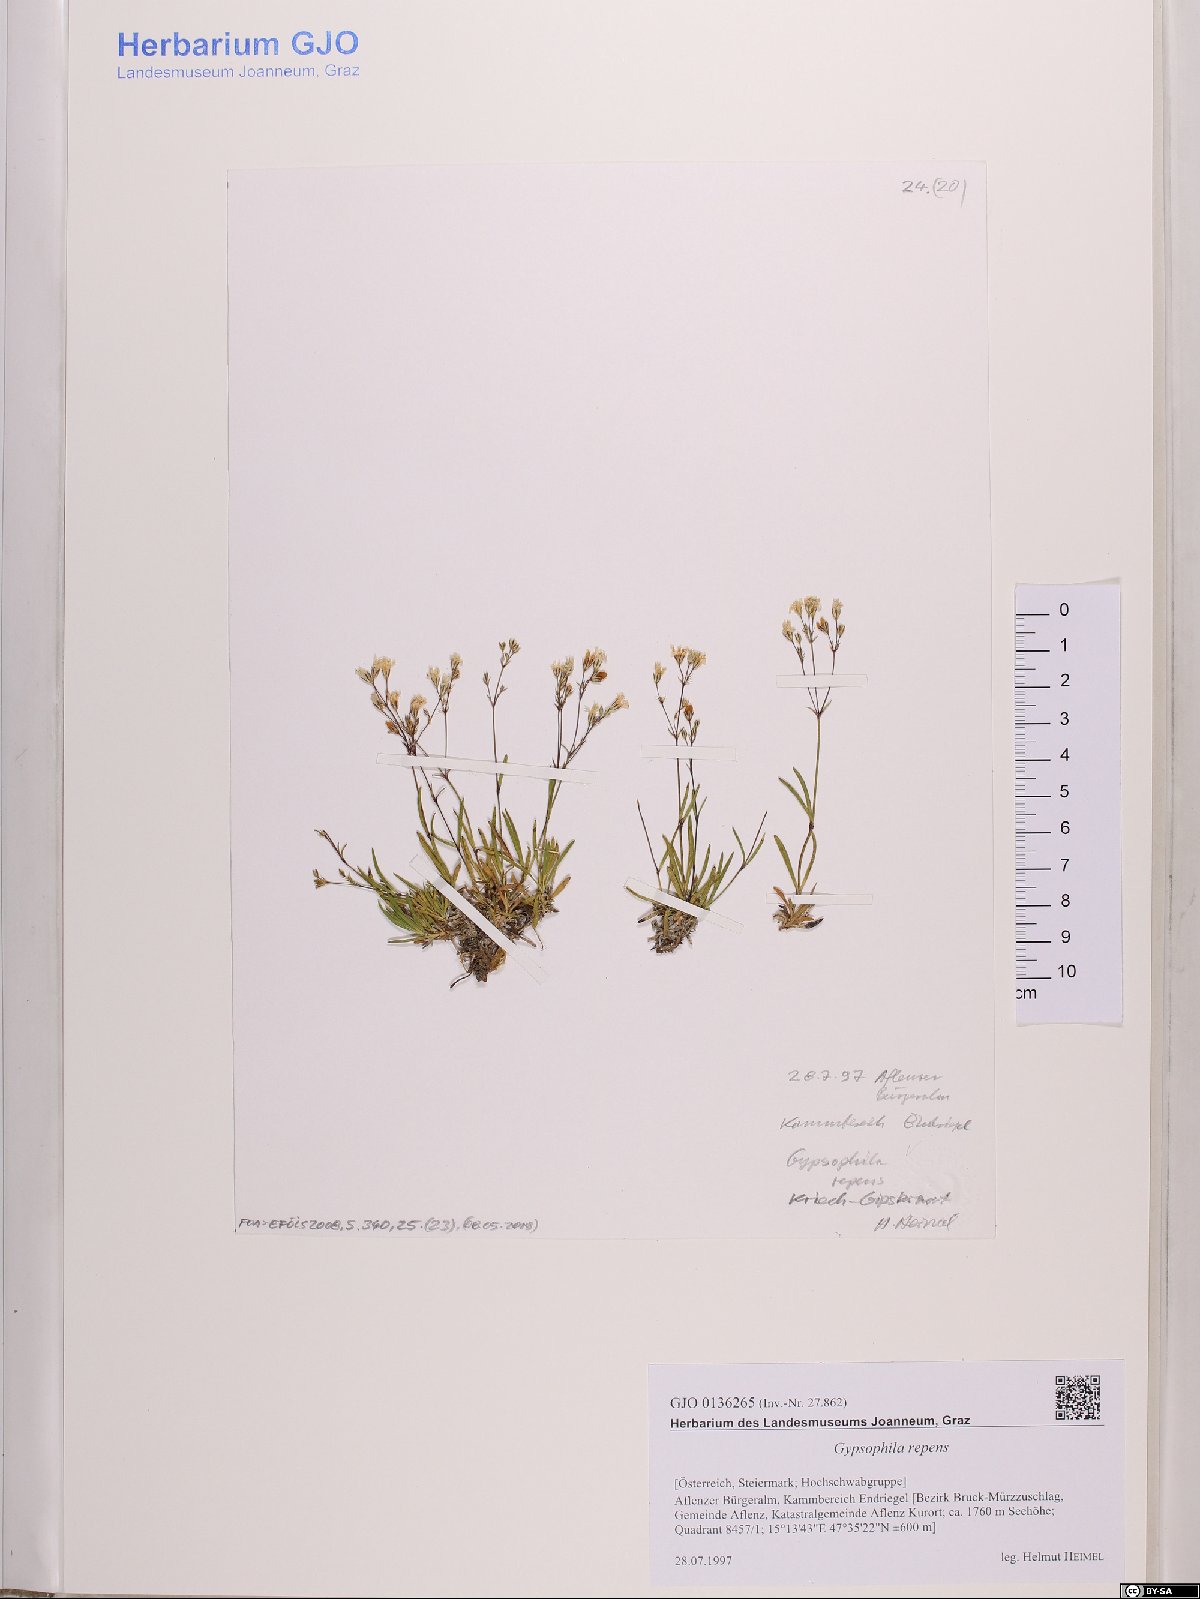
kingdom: Plantae
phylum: Tracheophyta
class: Magnoliopsida
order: Caryophyllales
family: Caryophyllaceae
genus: Gypsophila
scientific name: Gypsophila repens
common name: Creeping baby's-breath
